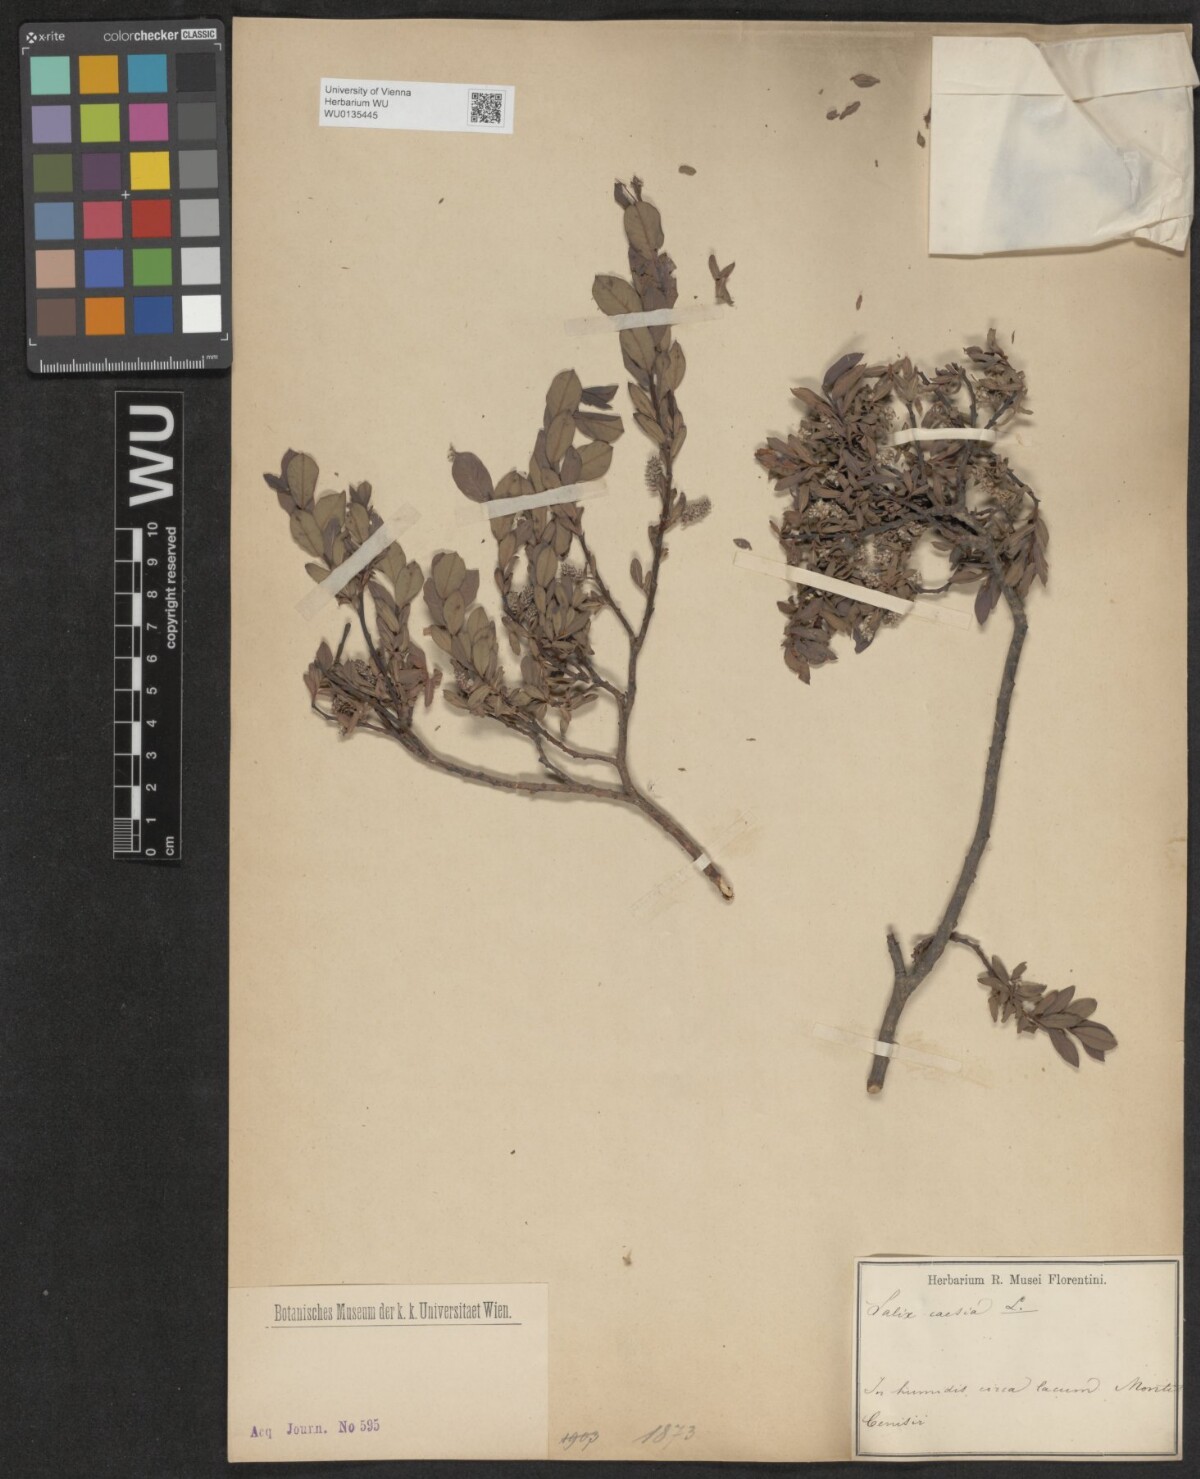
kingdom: Plantae
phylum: Tracheophyta
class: Magnoliopsida
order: Malpighiales
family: Salicaceae
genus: Salix
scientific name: Salix caesia
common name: Blue willow
